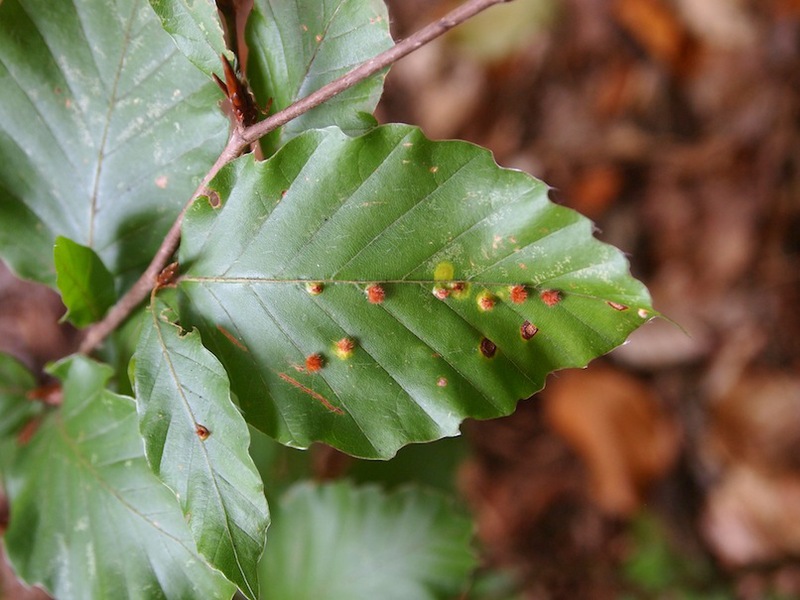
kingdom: Animalia
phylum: Arthropoda
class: Insecta
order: Diptera
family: Cecidomyiidae
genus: Hartigiola
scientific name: Hartigiola annulipes
